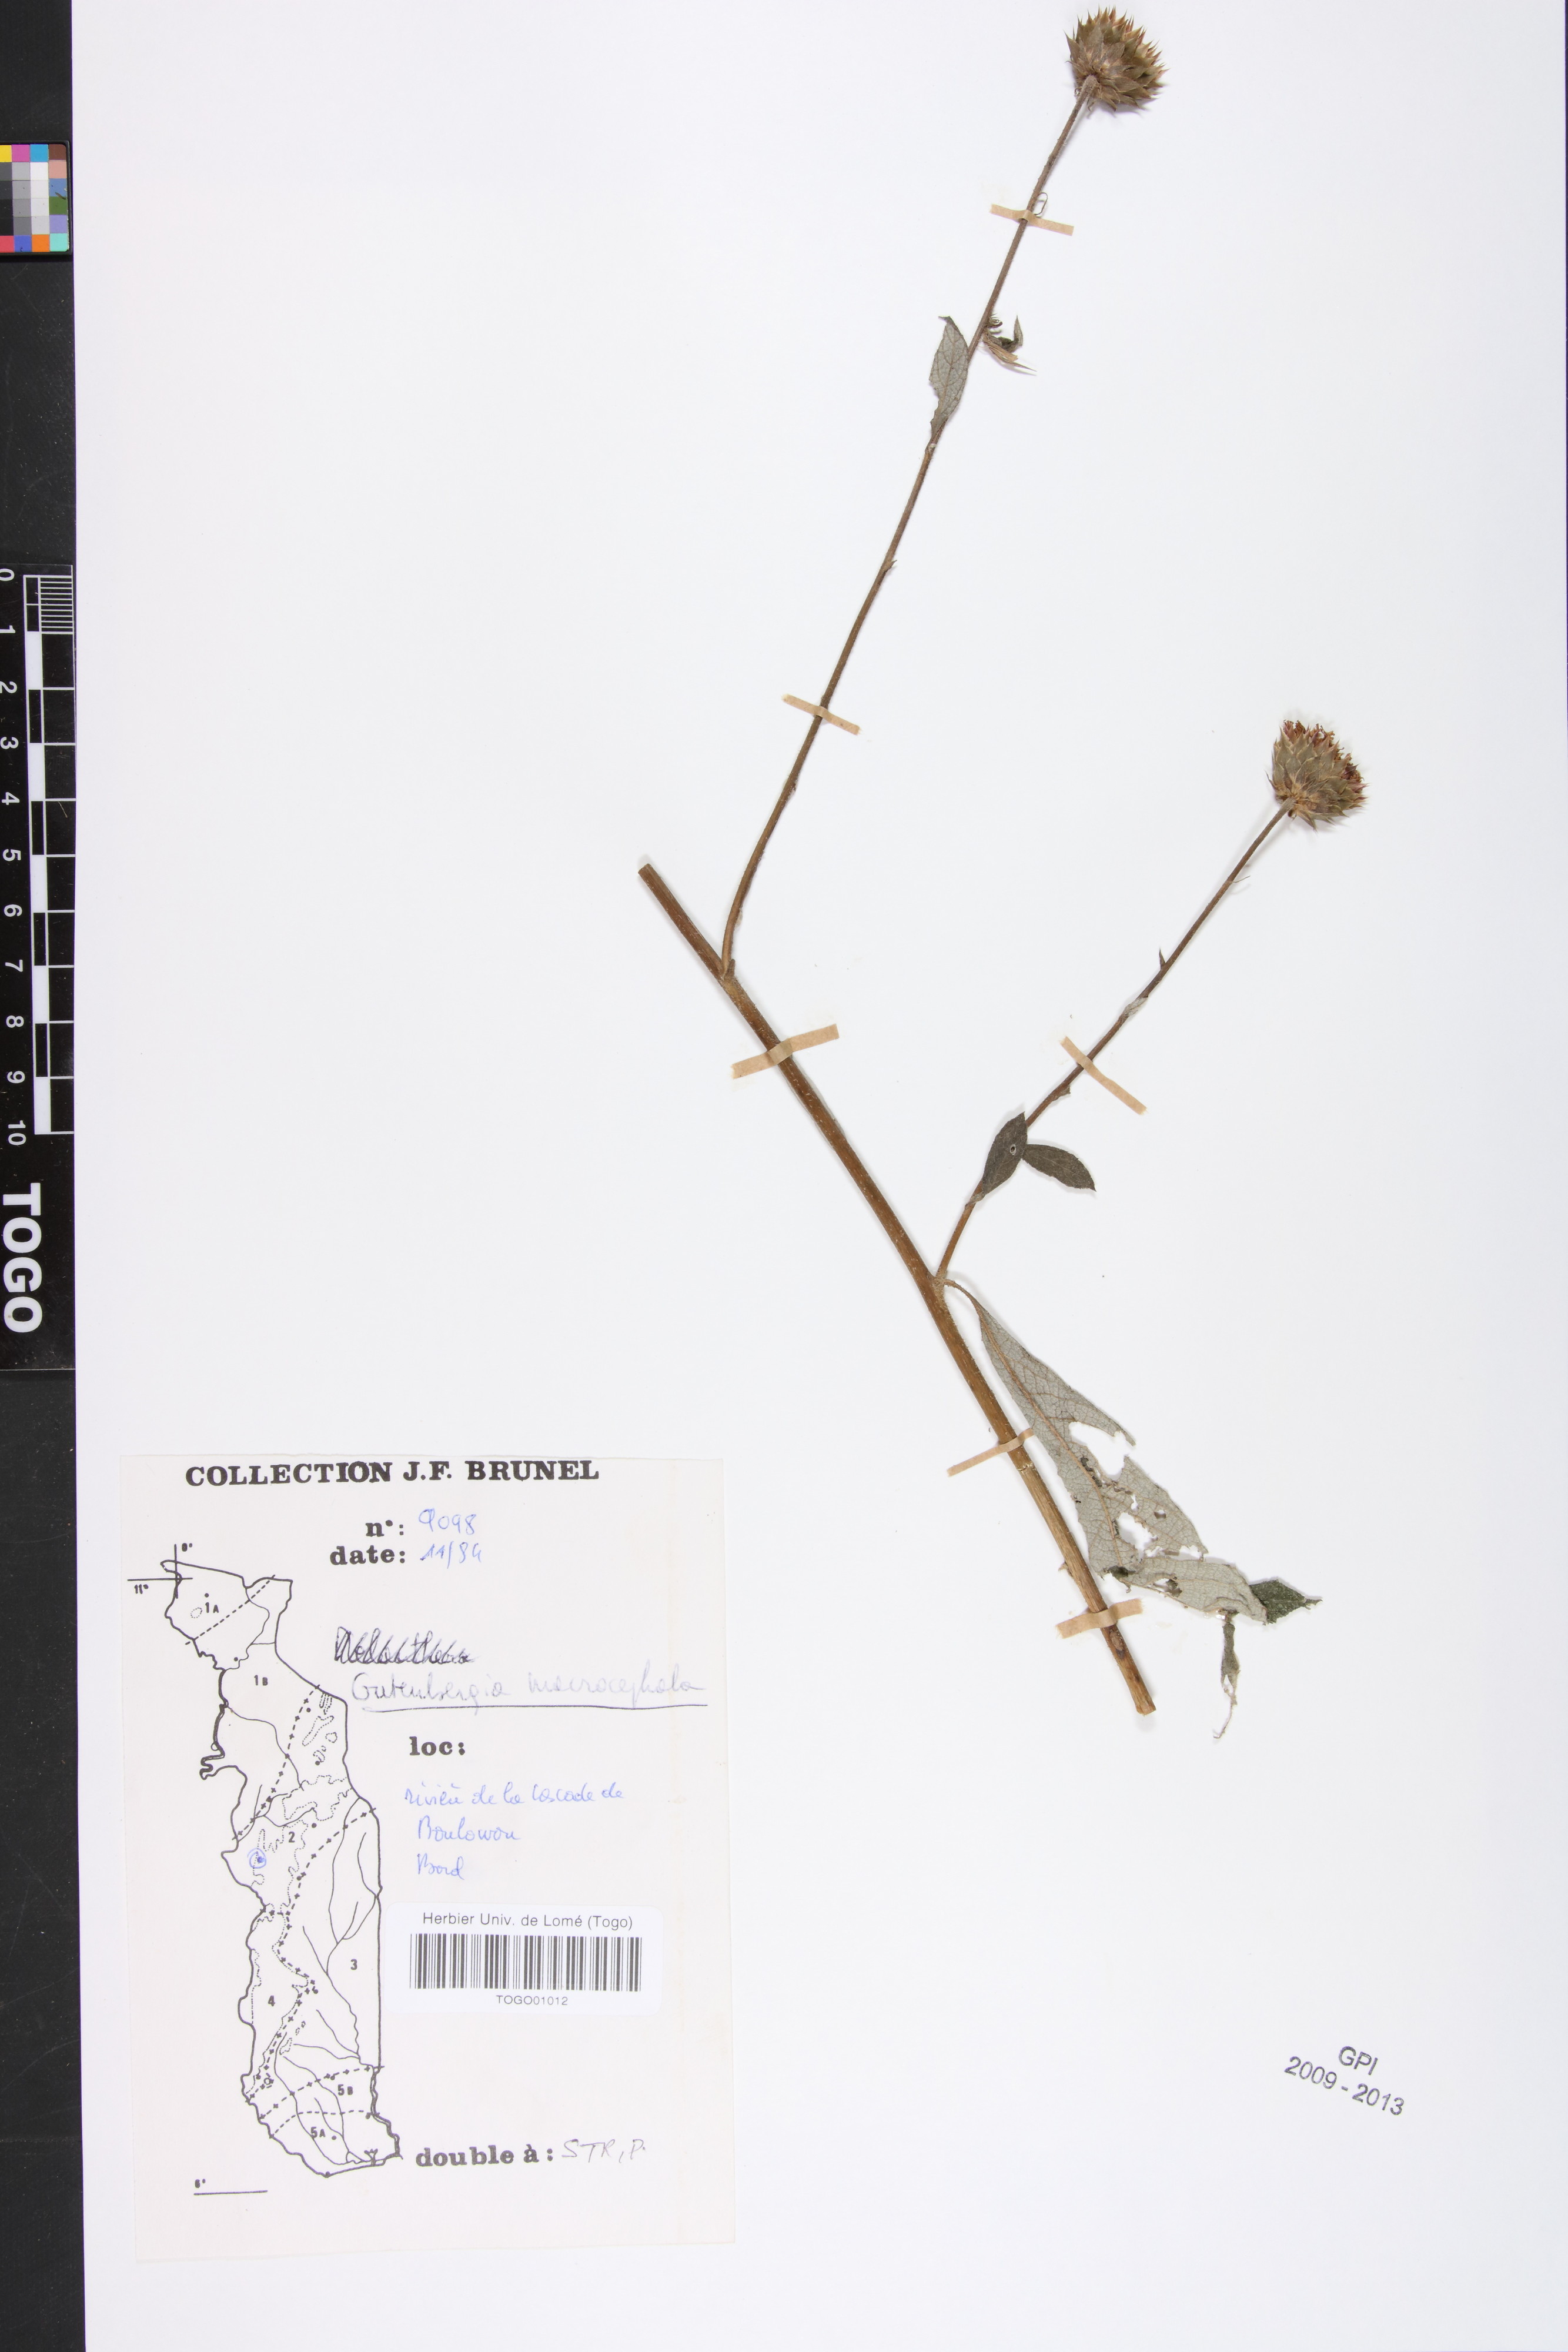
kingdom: Plantae
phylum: Tracheophyta
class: Magnoliopsida
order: Asterales
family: Asteraceae
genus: Kinghamia
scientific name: Kinghamia macrocephala
